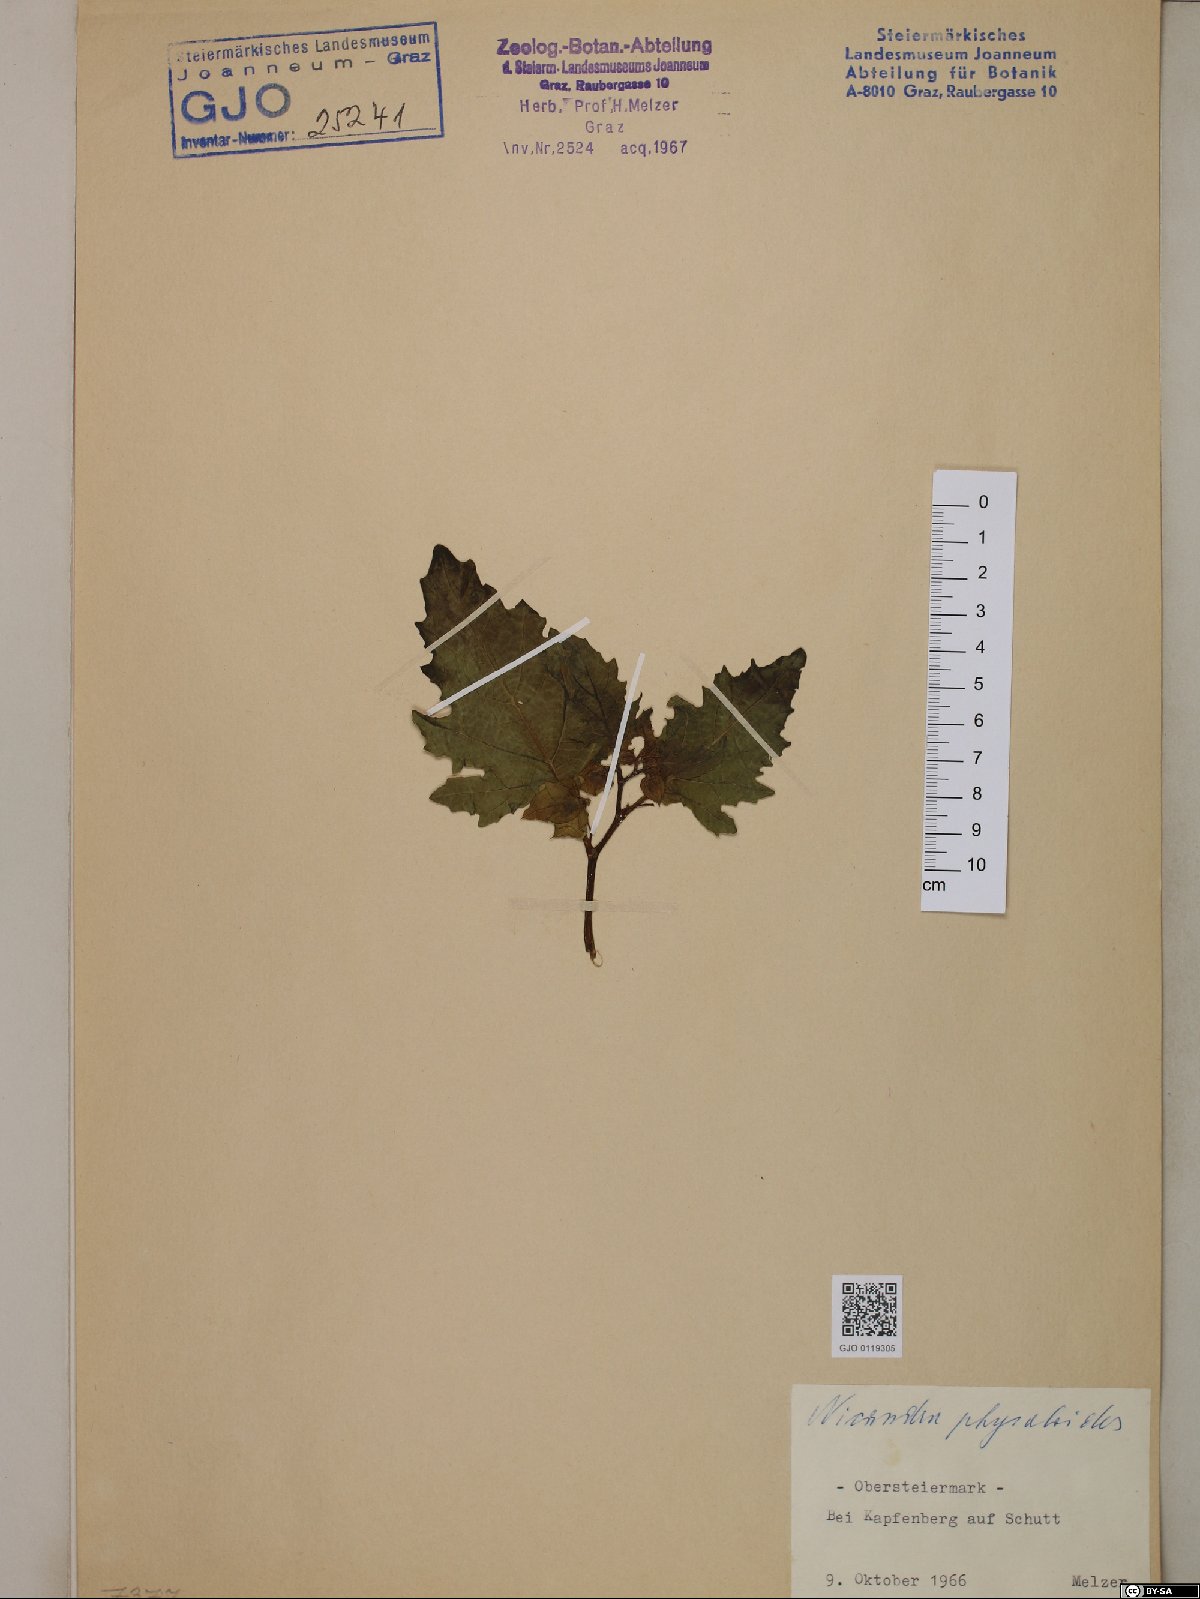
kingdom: Plantae
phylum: Tracheophyta
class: Magnoliopsida
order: Solanales
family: Solanaceae
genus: Nicandra
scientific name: Nicandra physalodes
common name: Apple-of-peru
